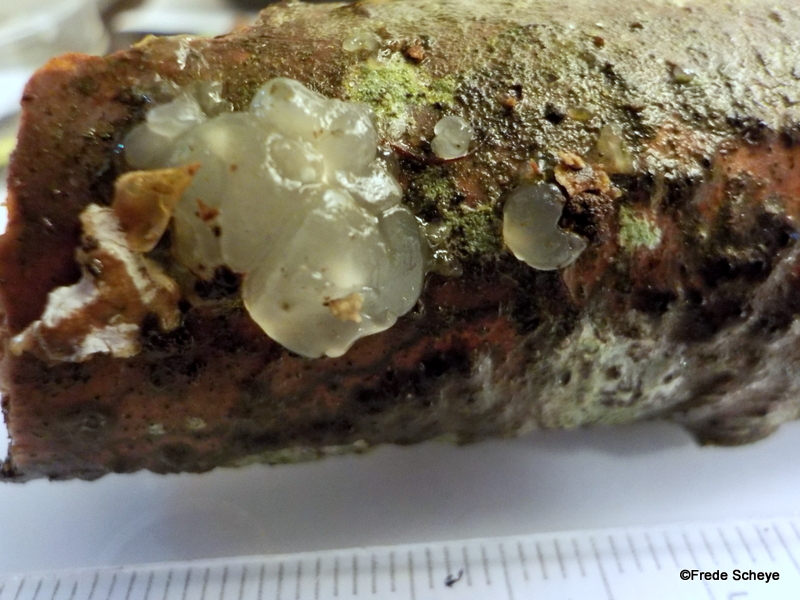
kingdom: Fungi
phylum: Basidiomycota
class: Agaricomycetes
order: Auriculariales
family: Hyaloriaceae
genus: Myxarium
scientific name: Myxarium nucleatum
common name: klar bævretop
